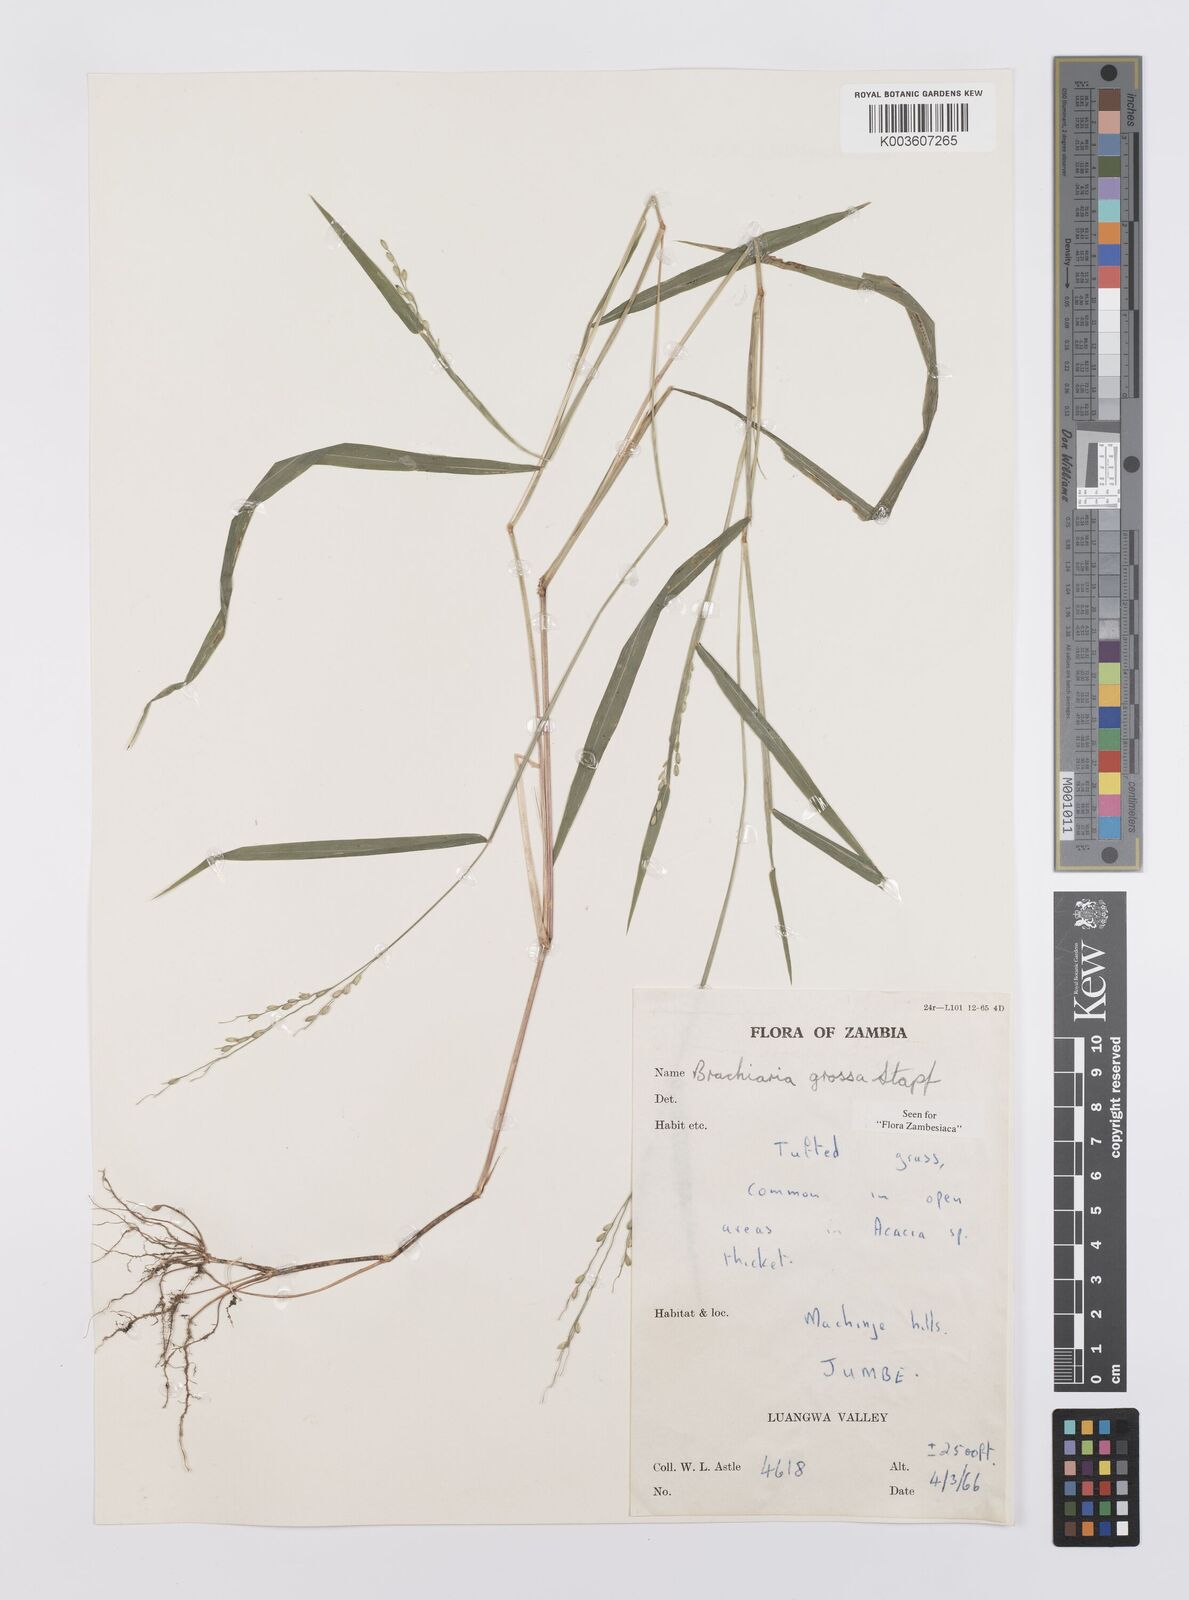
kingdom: Plantae
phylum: Tracheophyta
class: Liliopsida
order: Poales
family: Poaceae
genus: Urochloa
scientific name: Urochloa Brachiaria grossa
